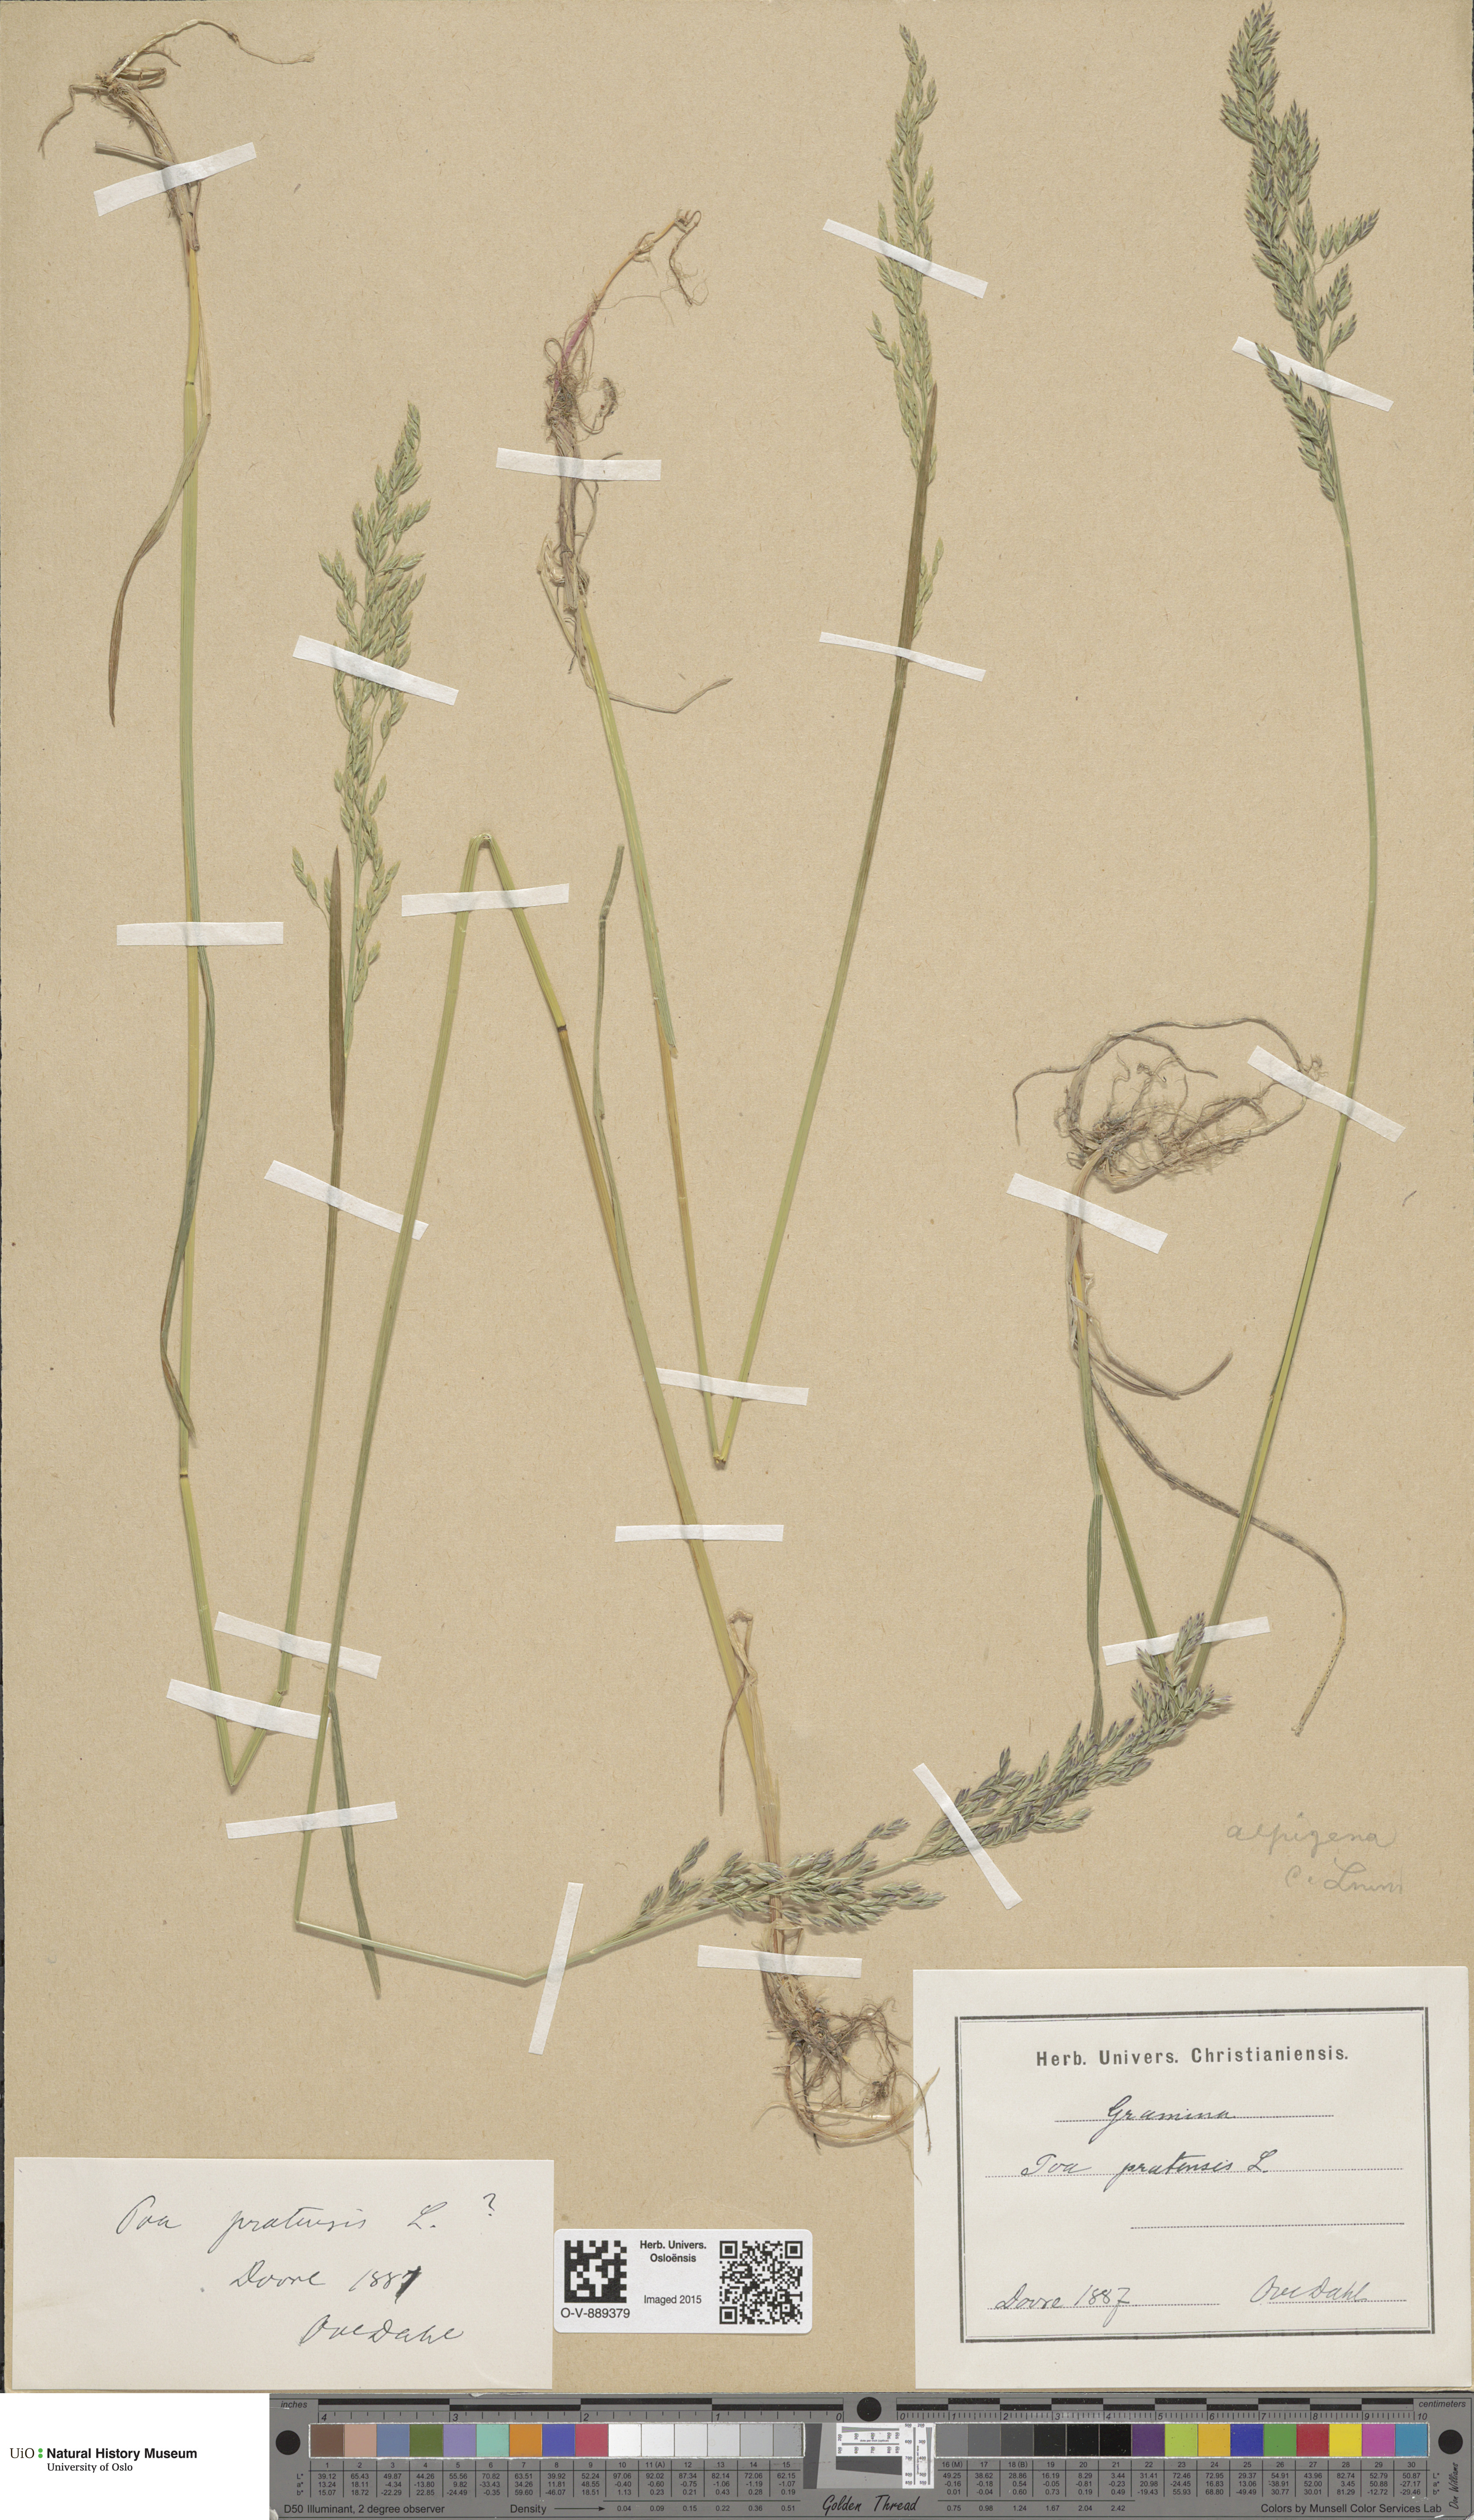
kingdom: Plantae
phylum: Tracheophyta
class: Liliopsida
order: Poales
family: Poaceae
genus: Poa
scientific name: Poa alpigena
